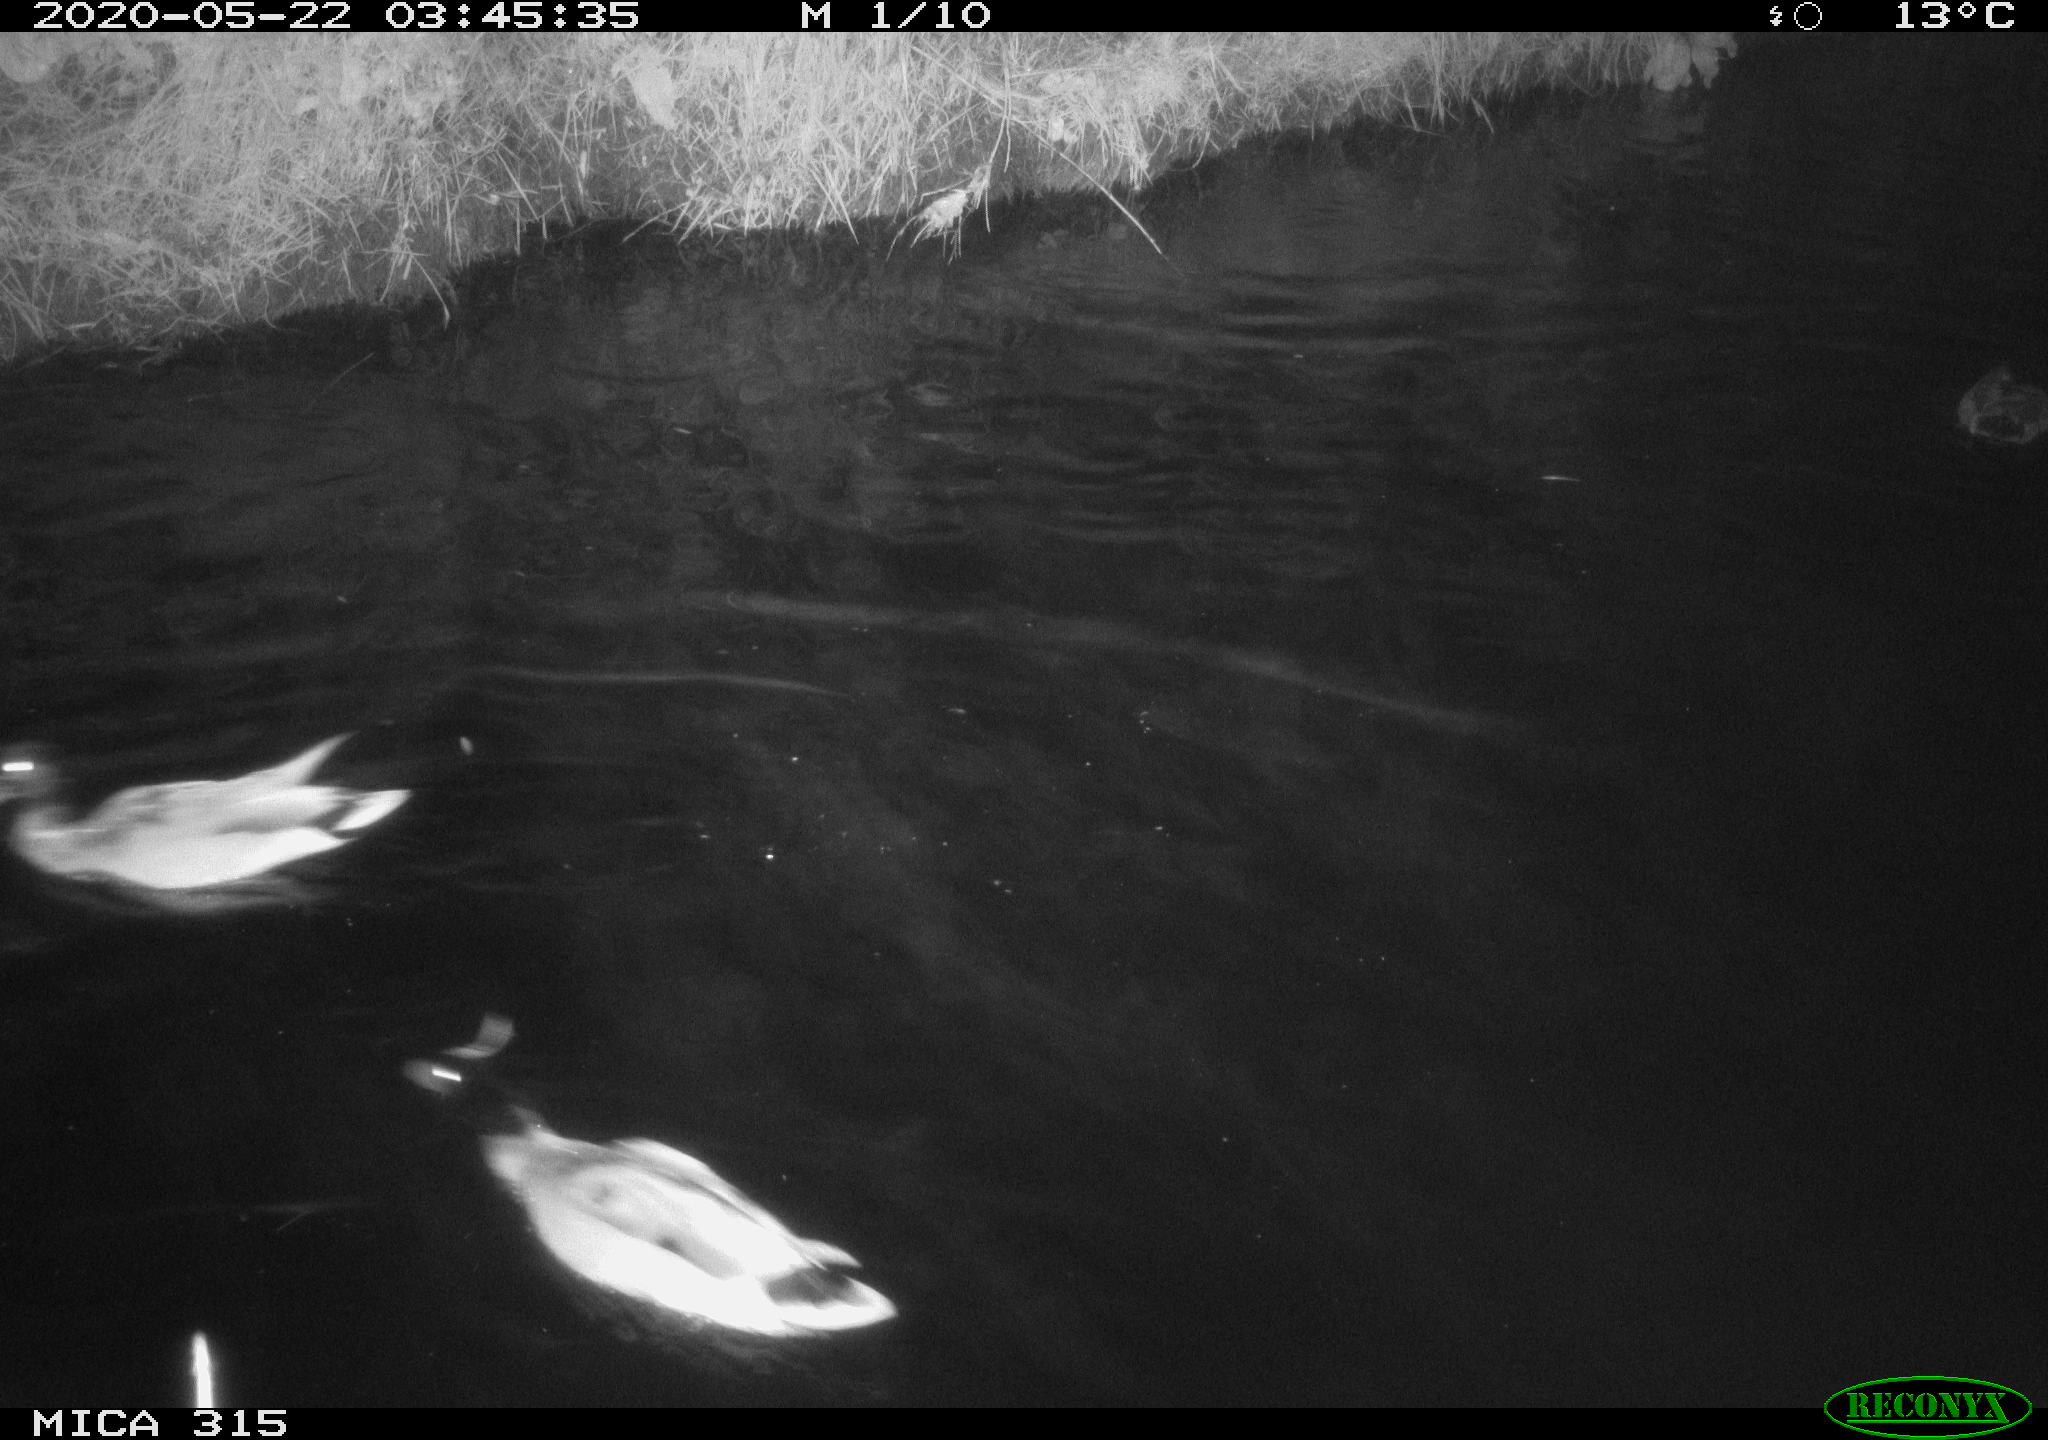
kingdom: Animalia
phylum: Chordata
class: Aves
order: Anseriformes
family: Anatidae
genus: Anas
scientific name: Anas platyrhynchos
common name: Mallard
